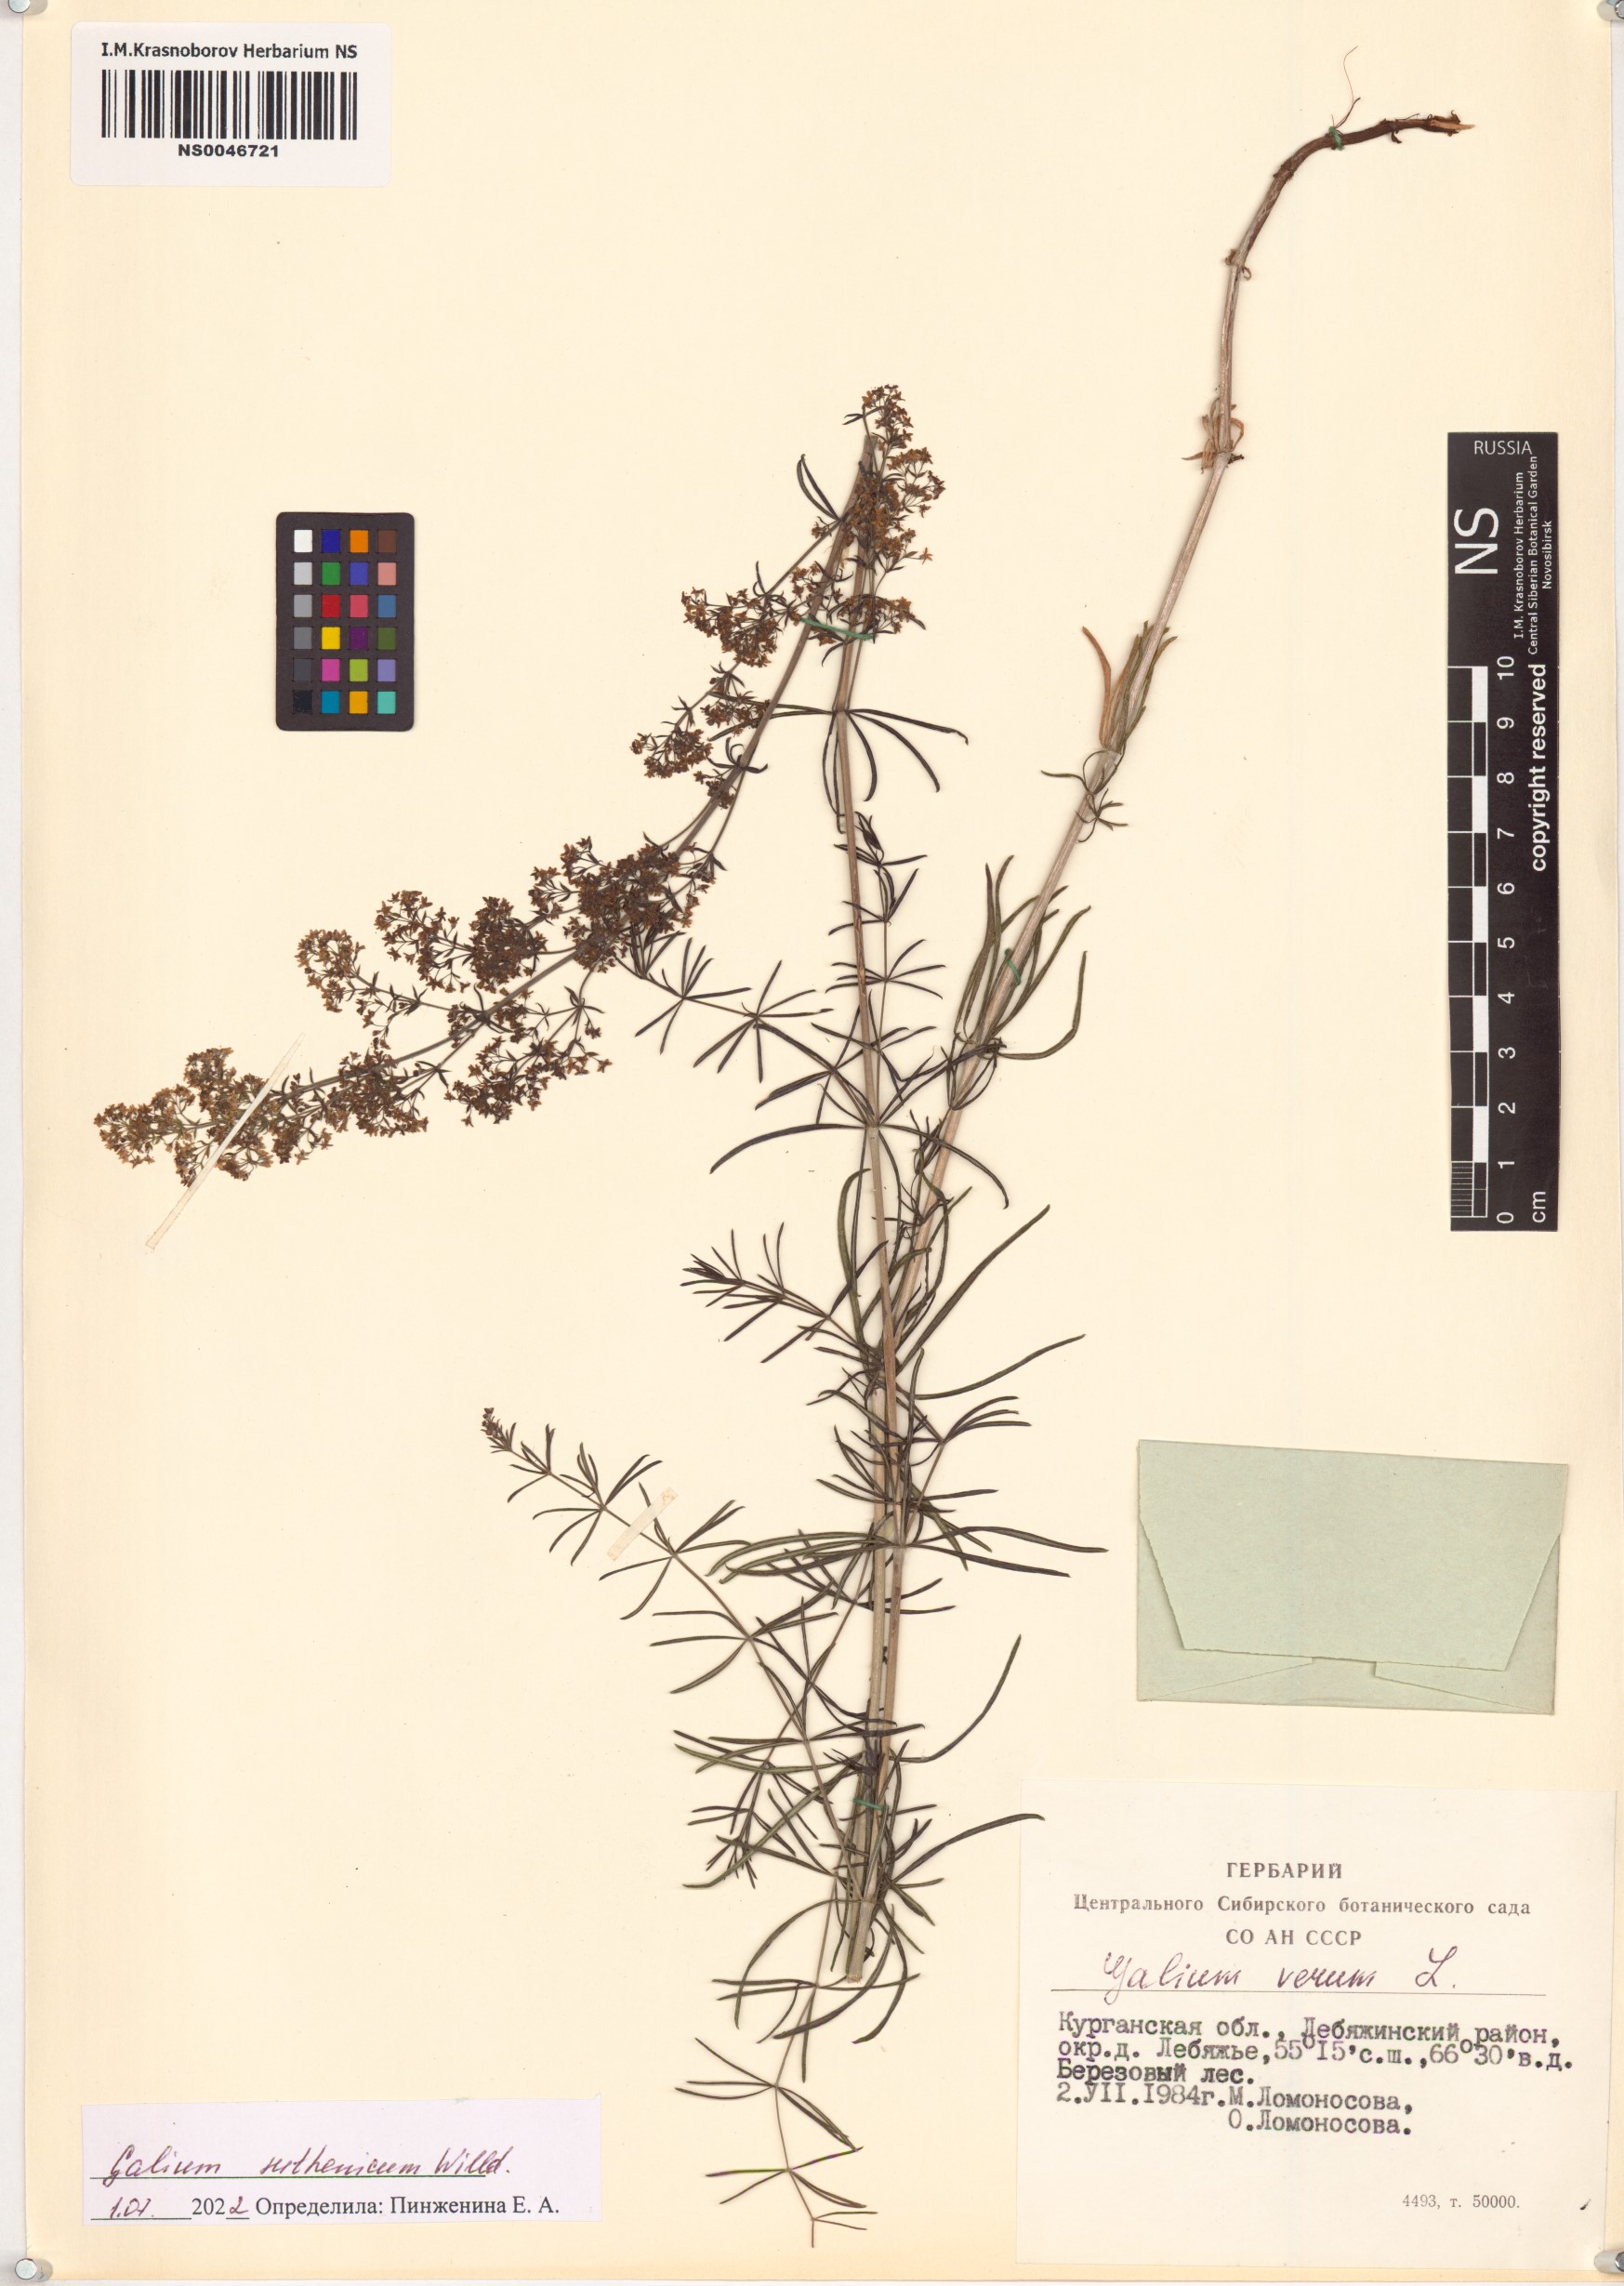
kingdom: Plantae
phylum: Tracheophyta
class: Magnoliopsida
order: Gentianales
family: Rubiaceae
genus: Galium
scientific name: Galium verum
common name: Lady's bedstraw
